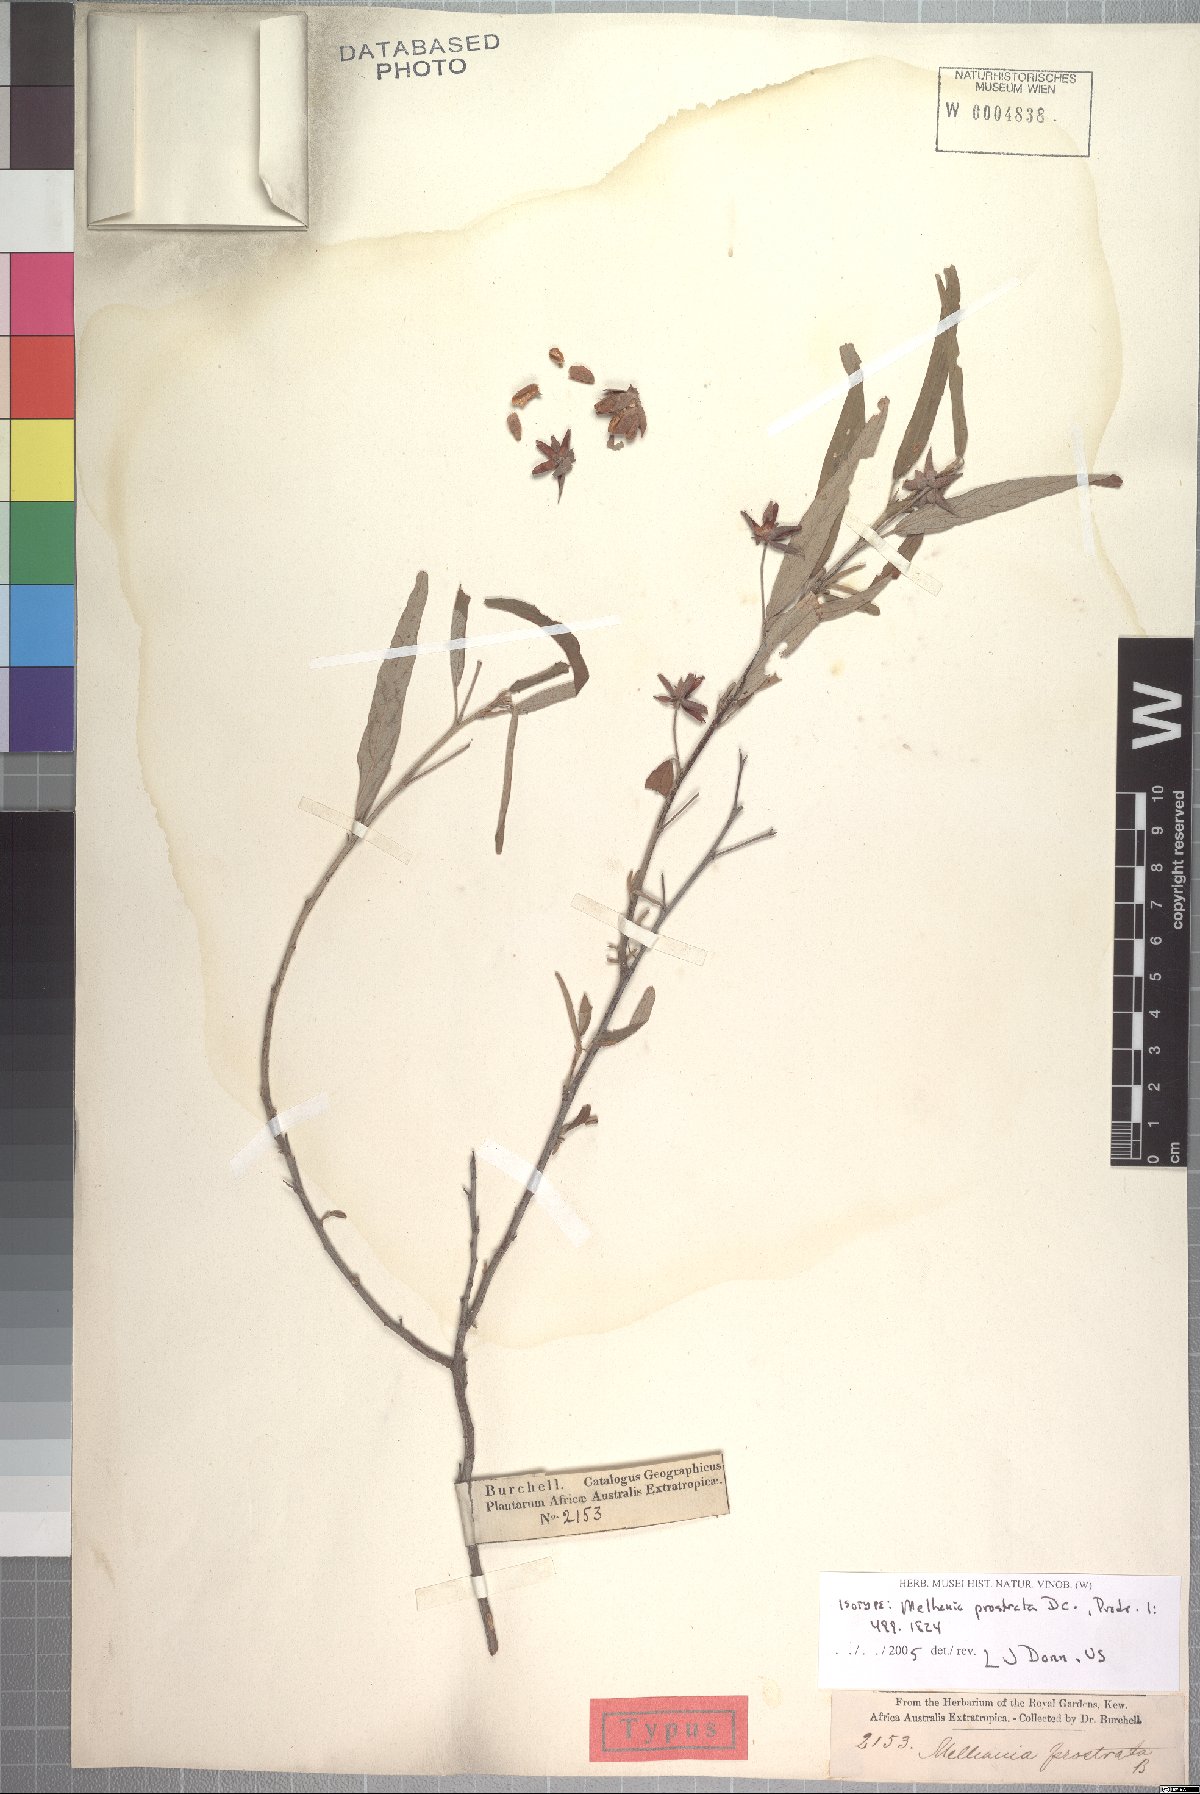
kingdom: Plantae
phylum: Tracheophyta
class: Magnoliopsida
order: Malvales
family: Malvaceae
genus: Melhania
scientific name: Melhania prostrata
